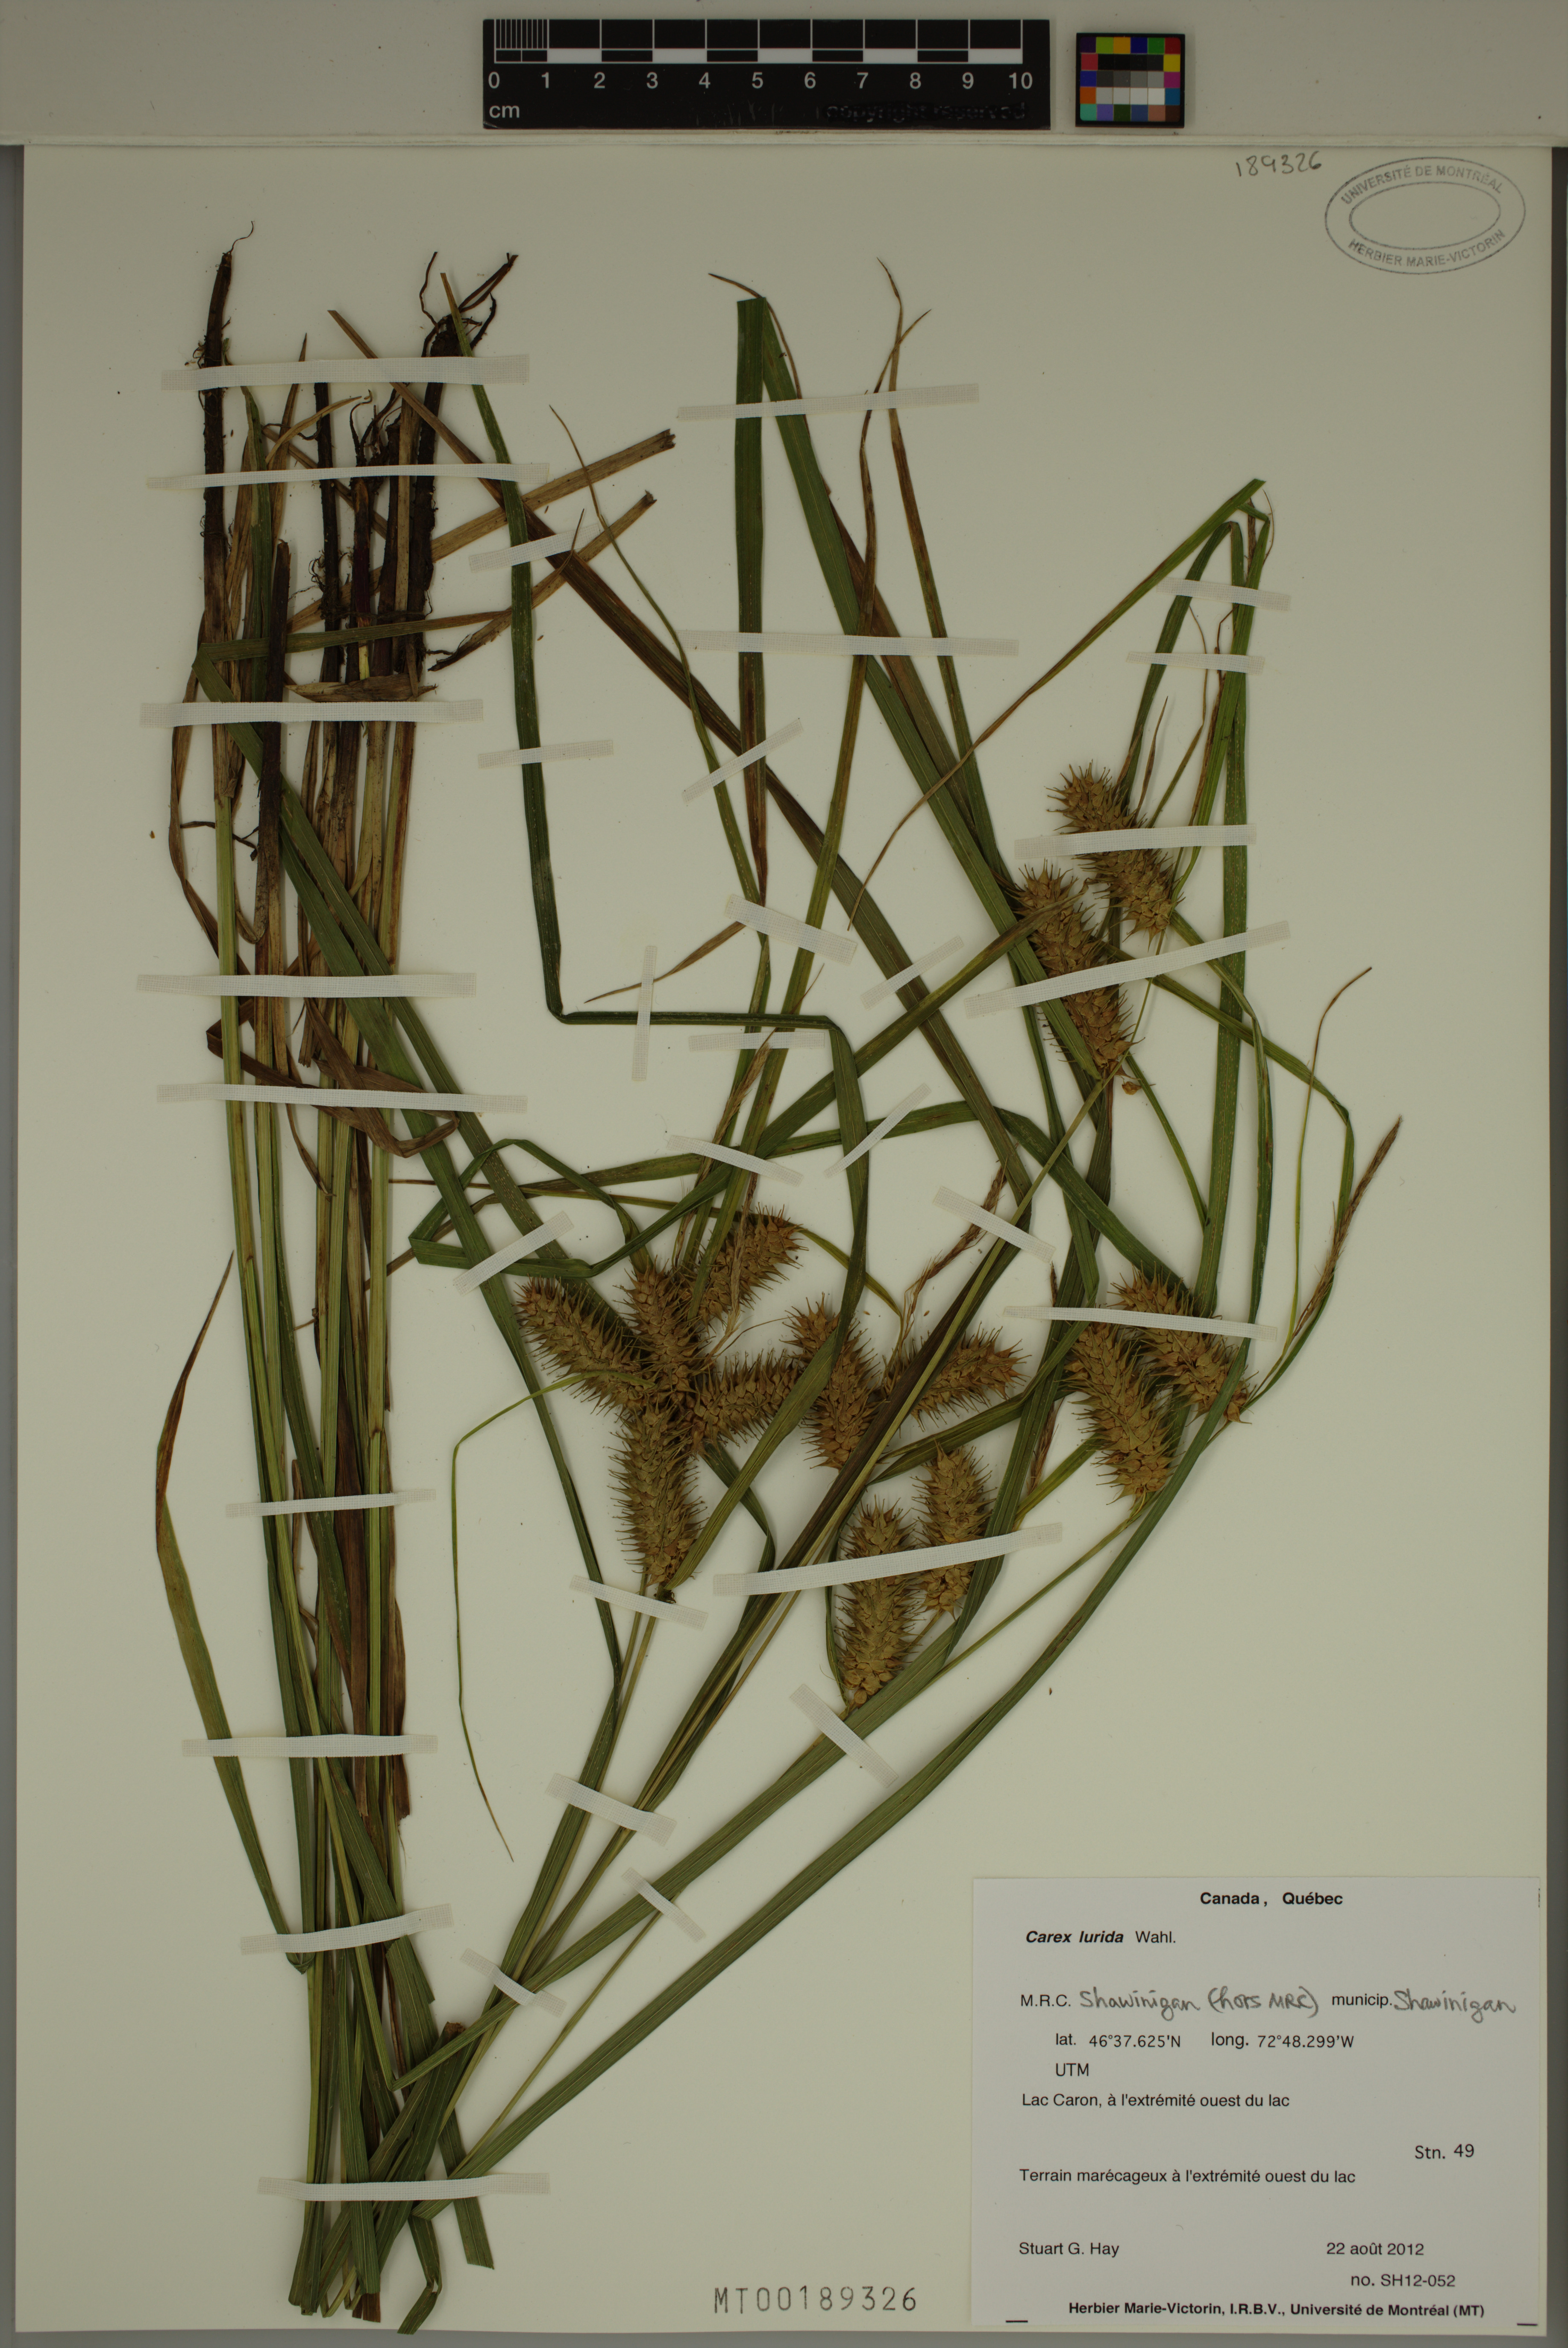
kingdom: Plantae
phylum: Tracheophyta
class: Liliopsida
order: Poales
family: Cyperaceae
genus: Carex
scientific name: Carex lurida
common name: Sallow sedge
